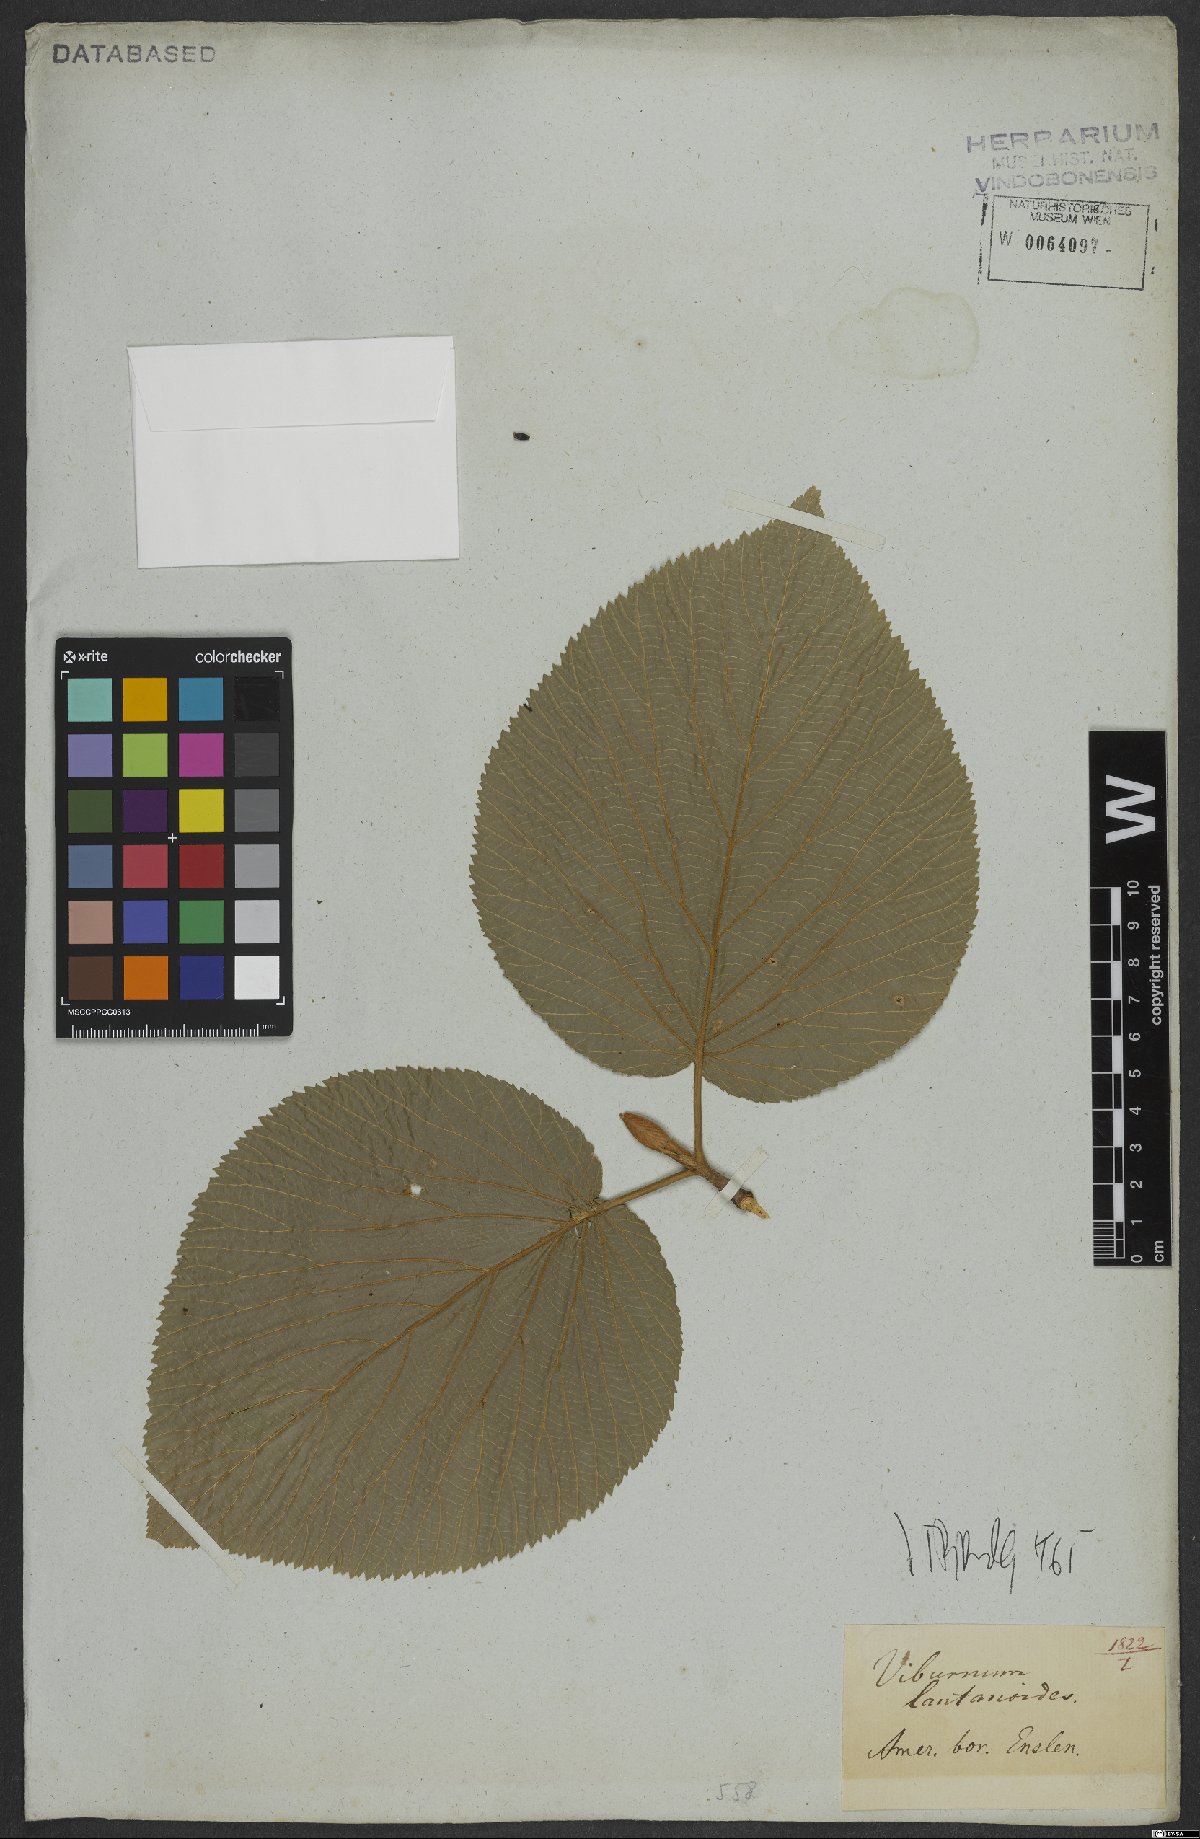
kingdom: Plantae
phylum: Tracheophyta
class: Magnoliopsida
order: Dipsacales
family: Viburnaceae
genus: Viburnum
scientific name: Viburnum lantanoides
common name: Hobblebush
